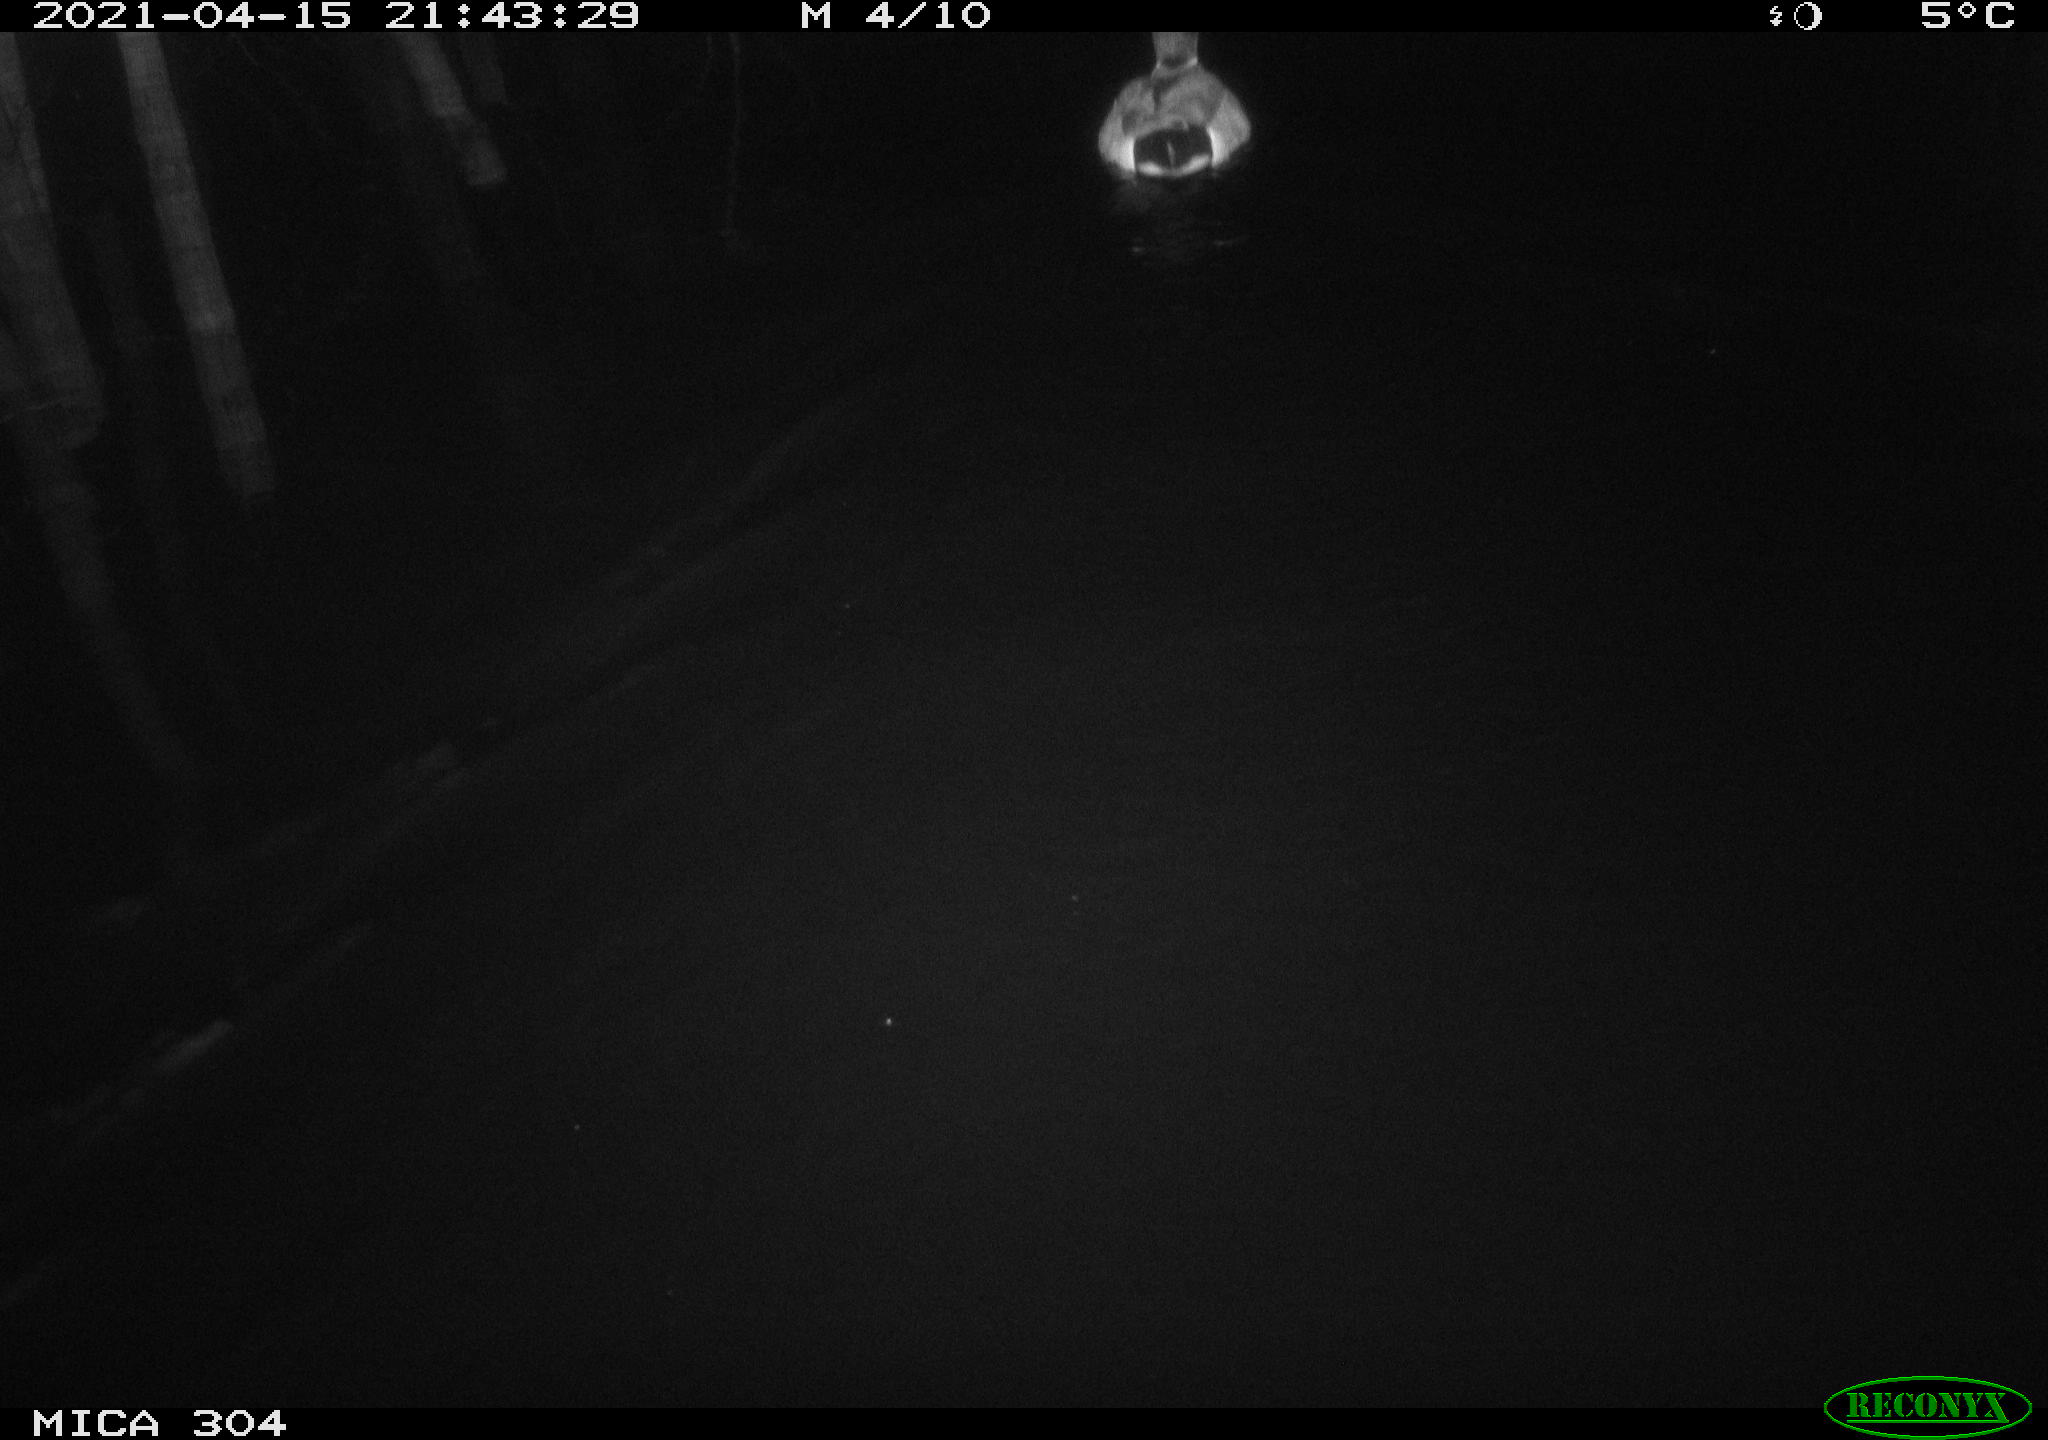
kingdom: Animalia
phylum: Chordata
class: Aves
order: Anseriformes
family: Anatidae
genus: Anas
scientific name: Anas
